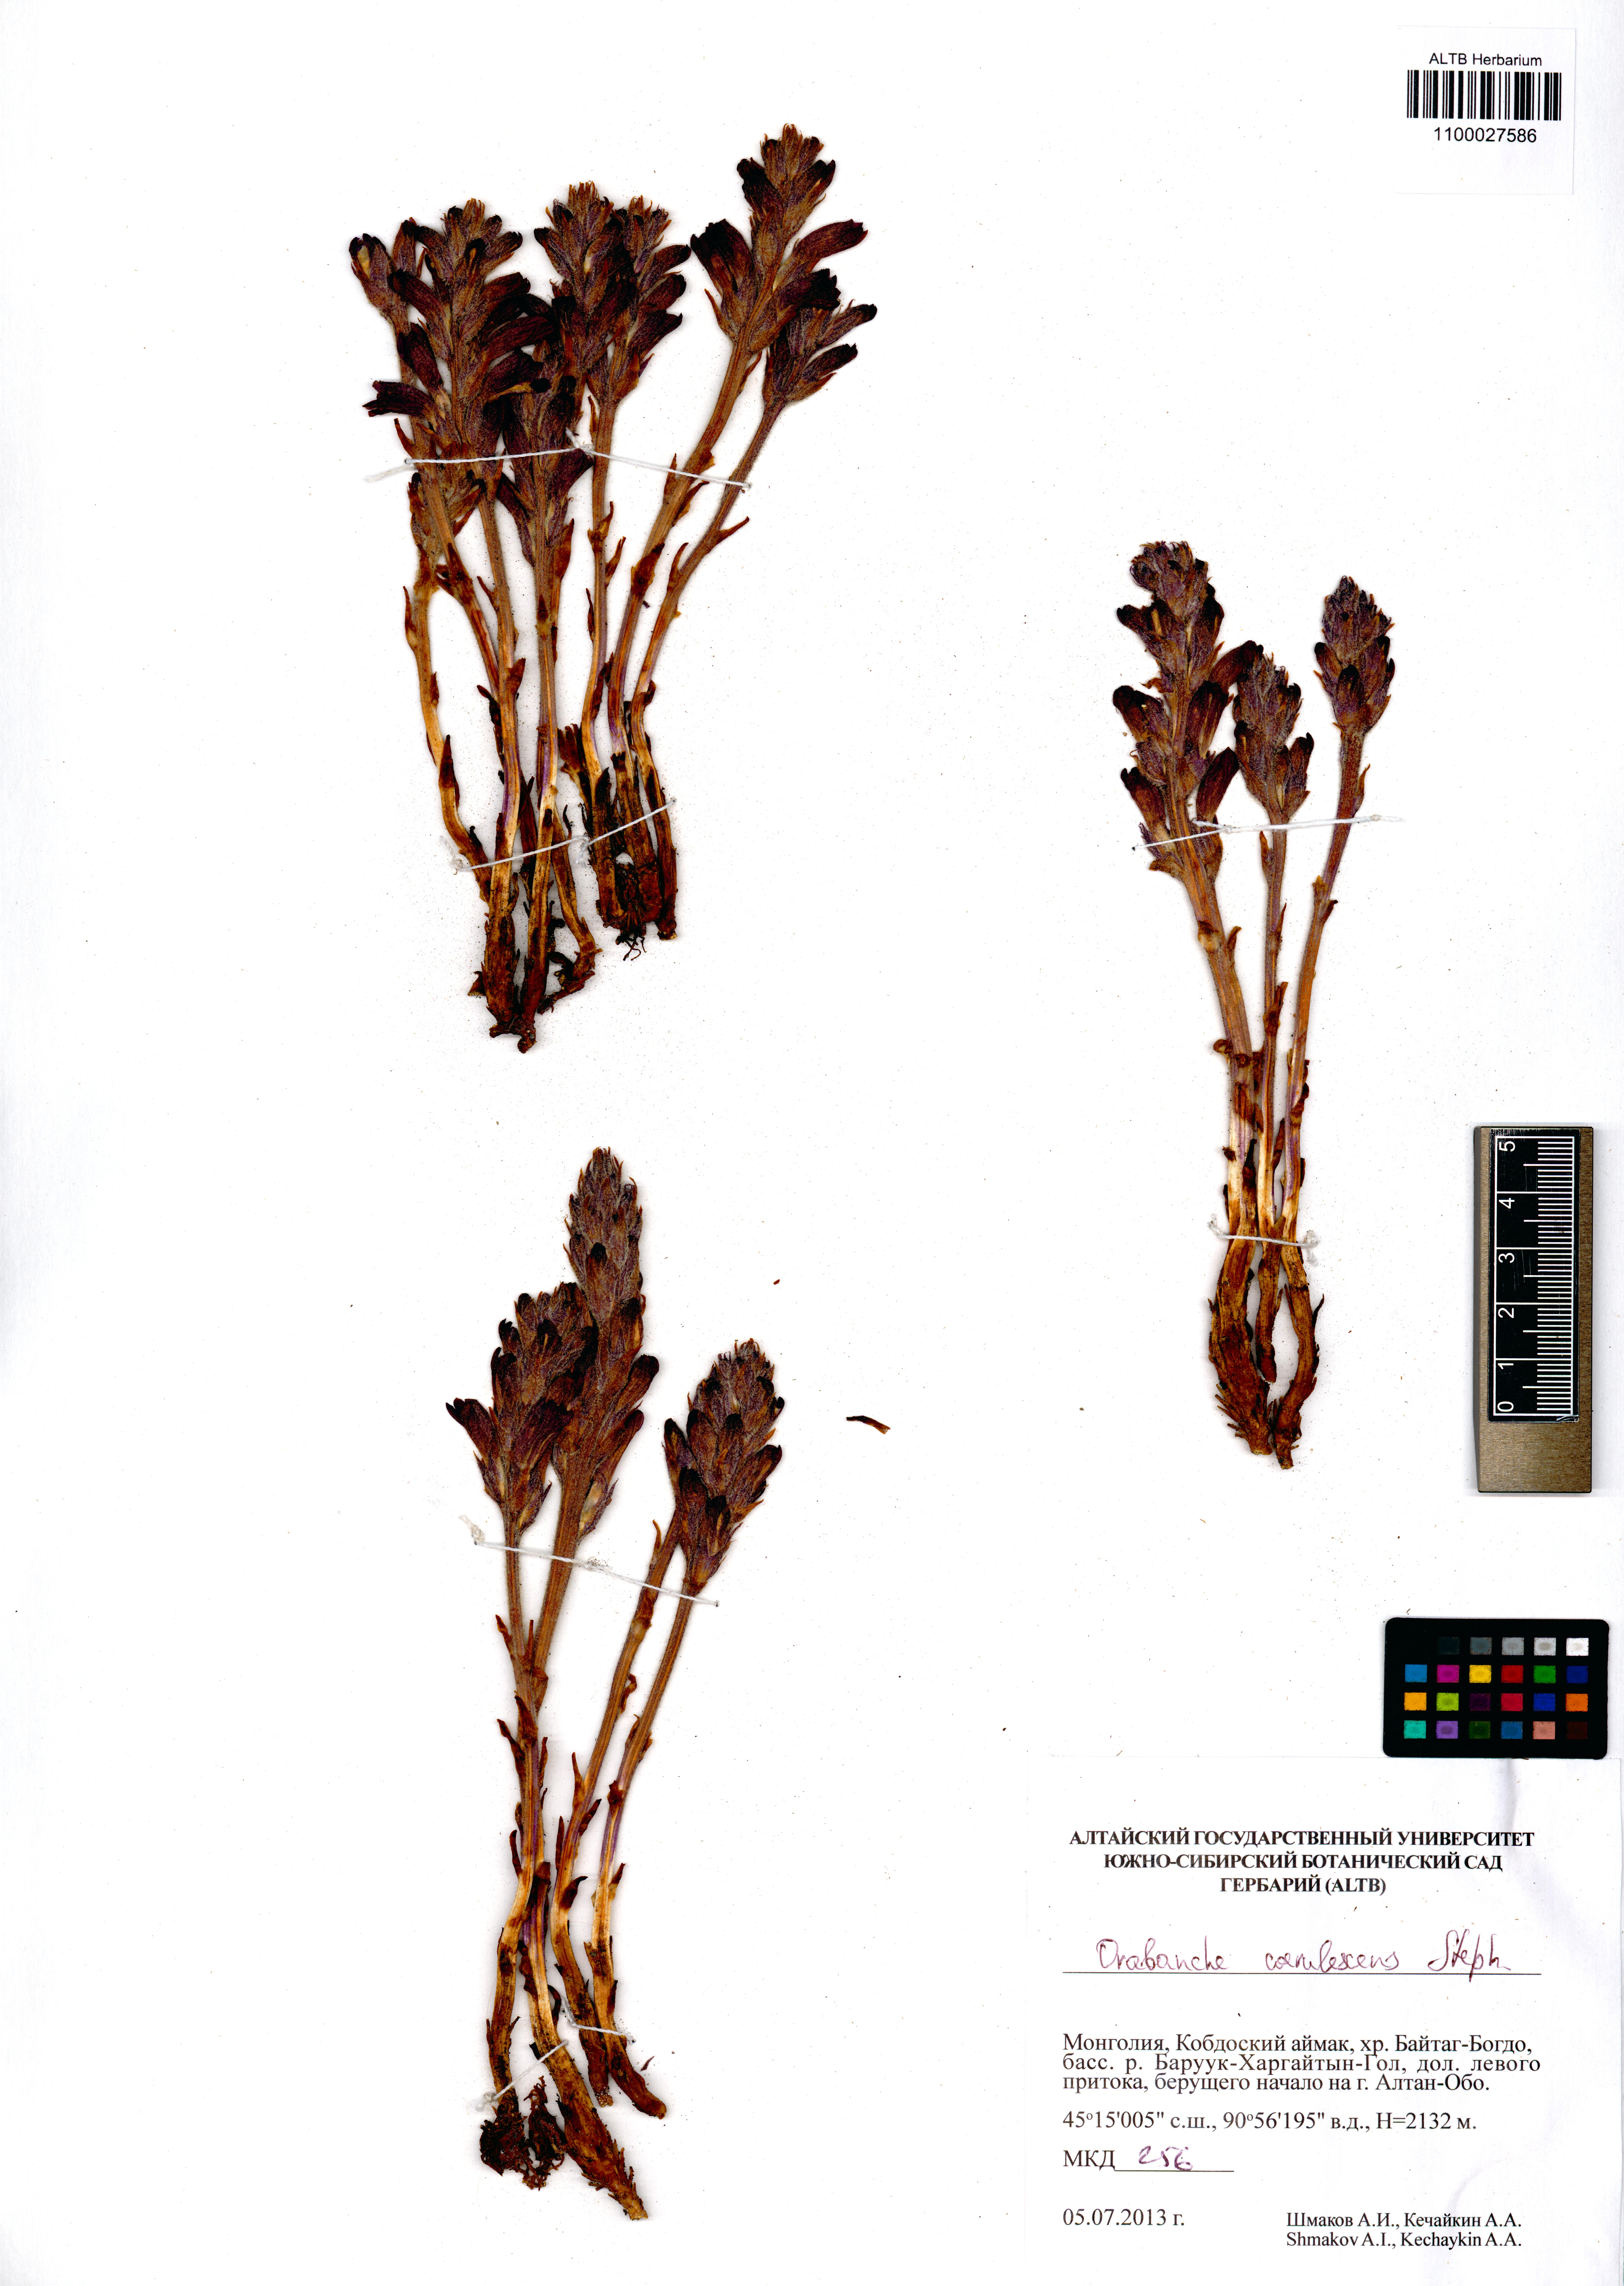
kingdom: Plantae
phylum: Tracheophyta
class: Magnoliopsida
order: Lamiales
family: Orobanchaceae
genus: Orobanche
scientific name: Orobanche coerulescens
